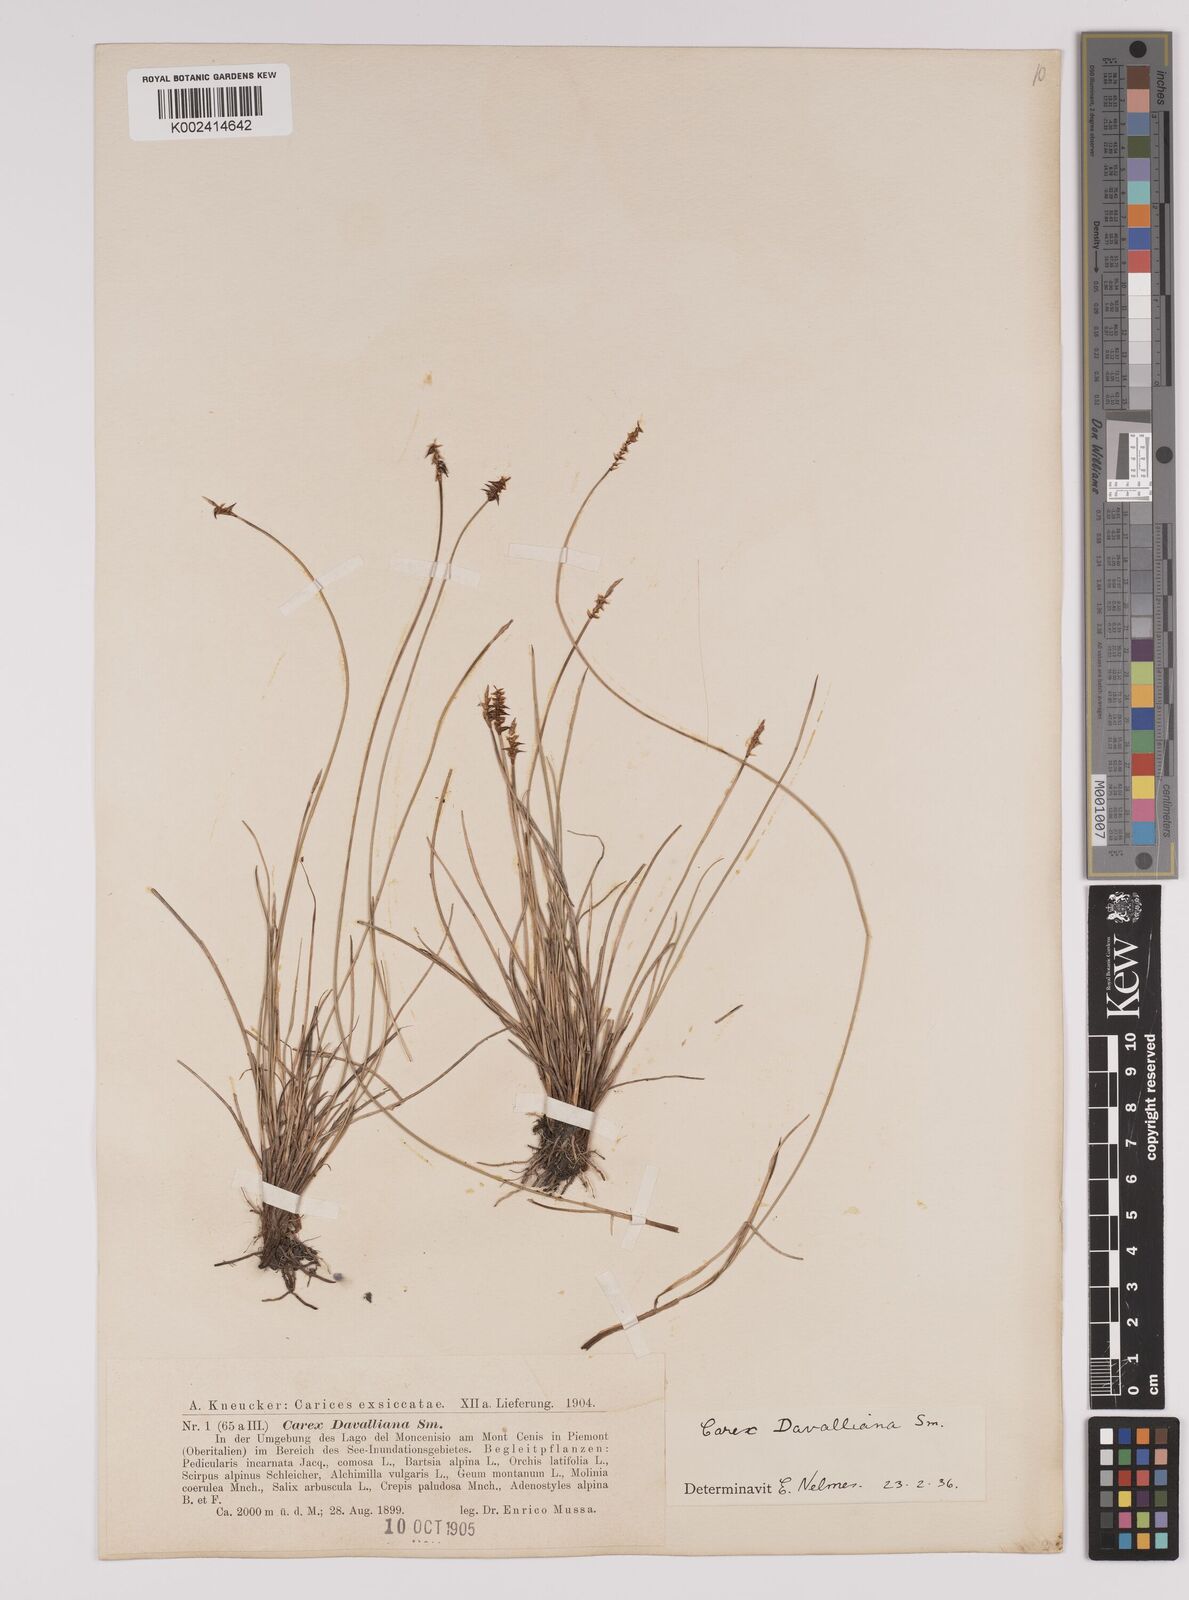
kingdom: Plantae
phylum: Tracheophyta
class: Liliopsida
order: Poales
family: Cyperaceae
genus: Carex
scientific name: Carex davalliana
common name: Davall's sedge
